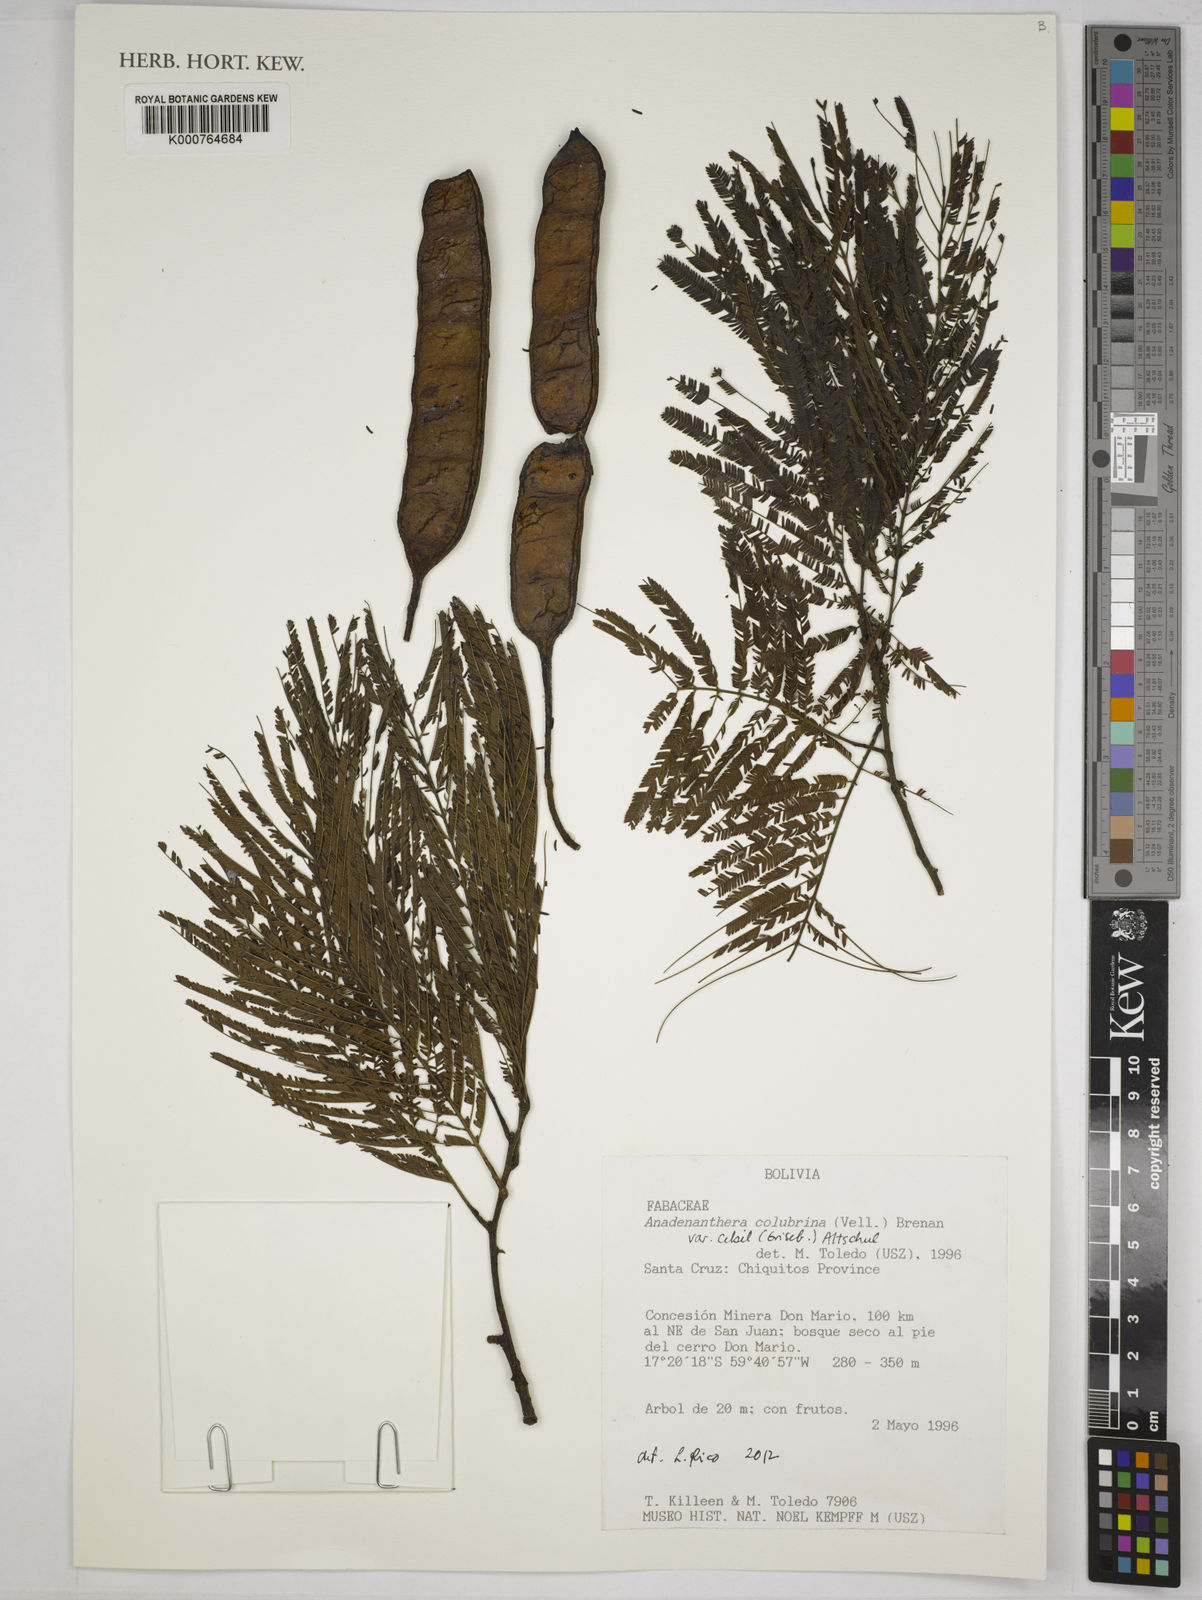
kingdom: Plantae
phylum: Tracheophyta
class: Magnoliopsida
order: Fabales
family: Fabaceae
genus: Anadenanthera
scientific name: Anadenanthera colubrina
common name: Curupay
